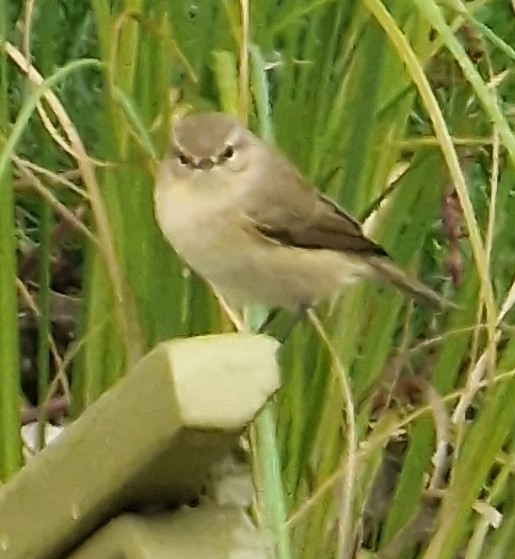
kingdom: Animalia
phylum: Chordata
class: Aves
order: Passeriformes
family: Phylloscopidae
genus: Phylloscopus
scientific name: Phylloscopus collybita
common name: Gransanger
